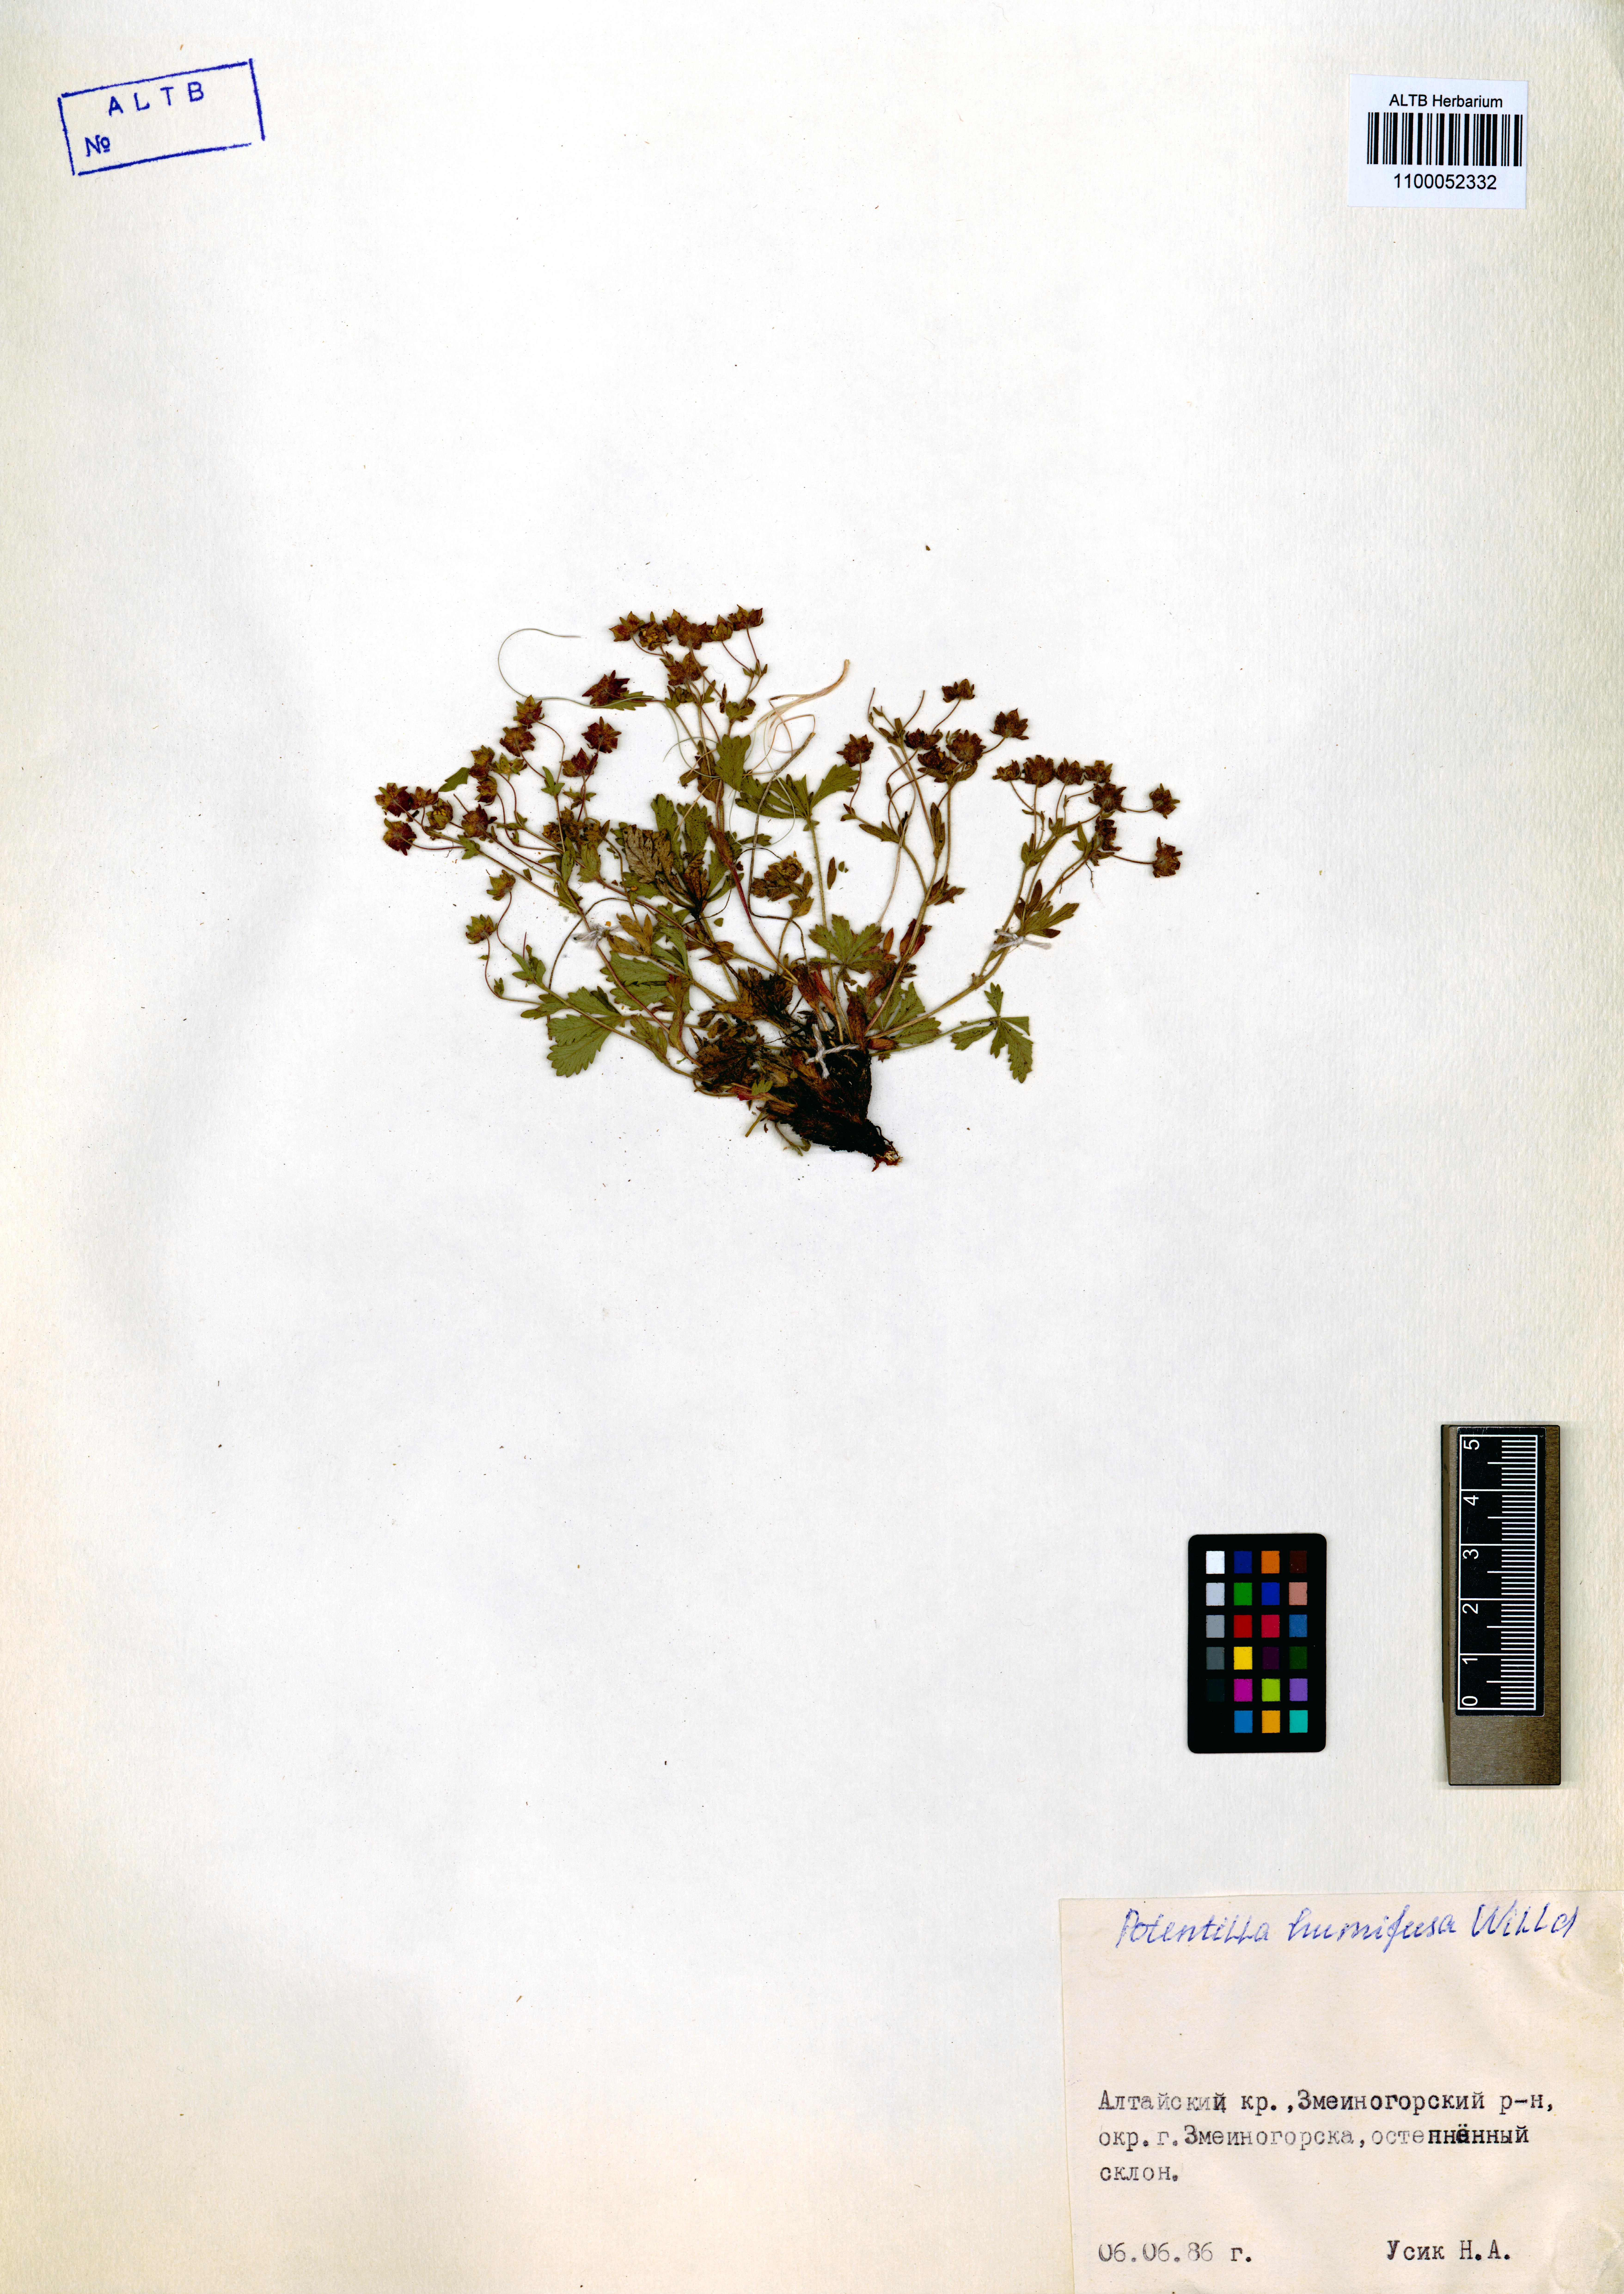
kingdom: Plantae
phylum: Tracheophyta
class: Magnoliopsida
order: Rosales
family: Rosaceae
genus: Potentilla
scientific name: Potentilla humifusa
